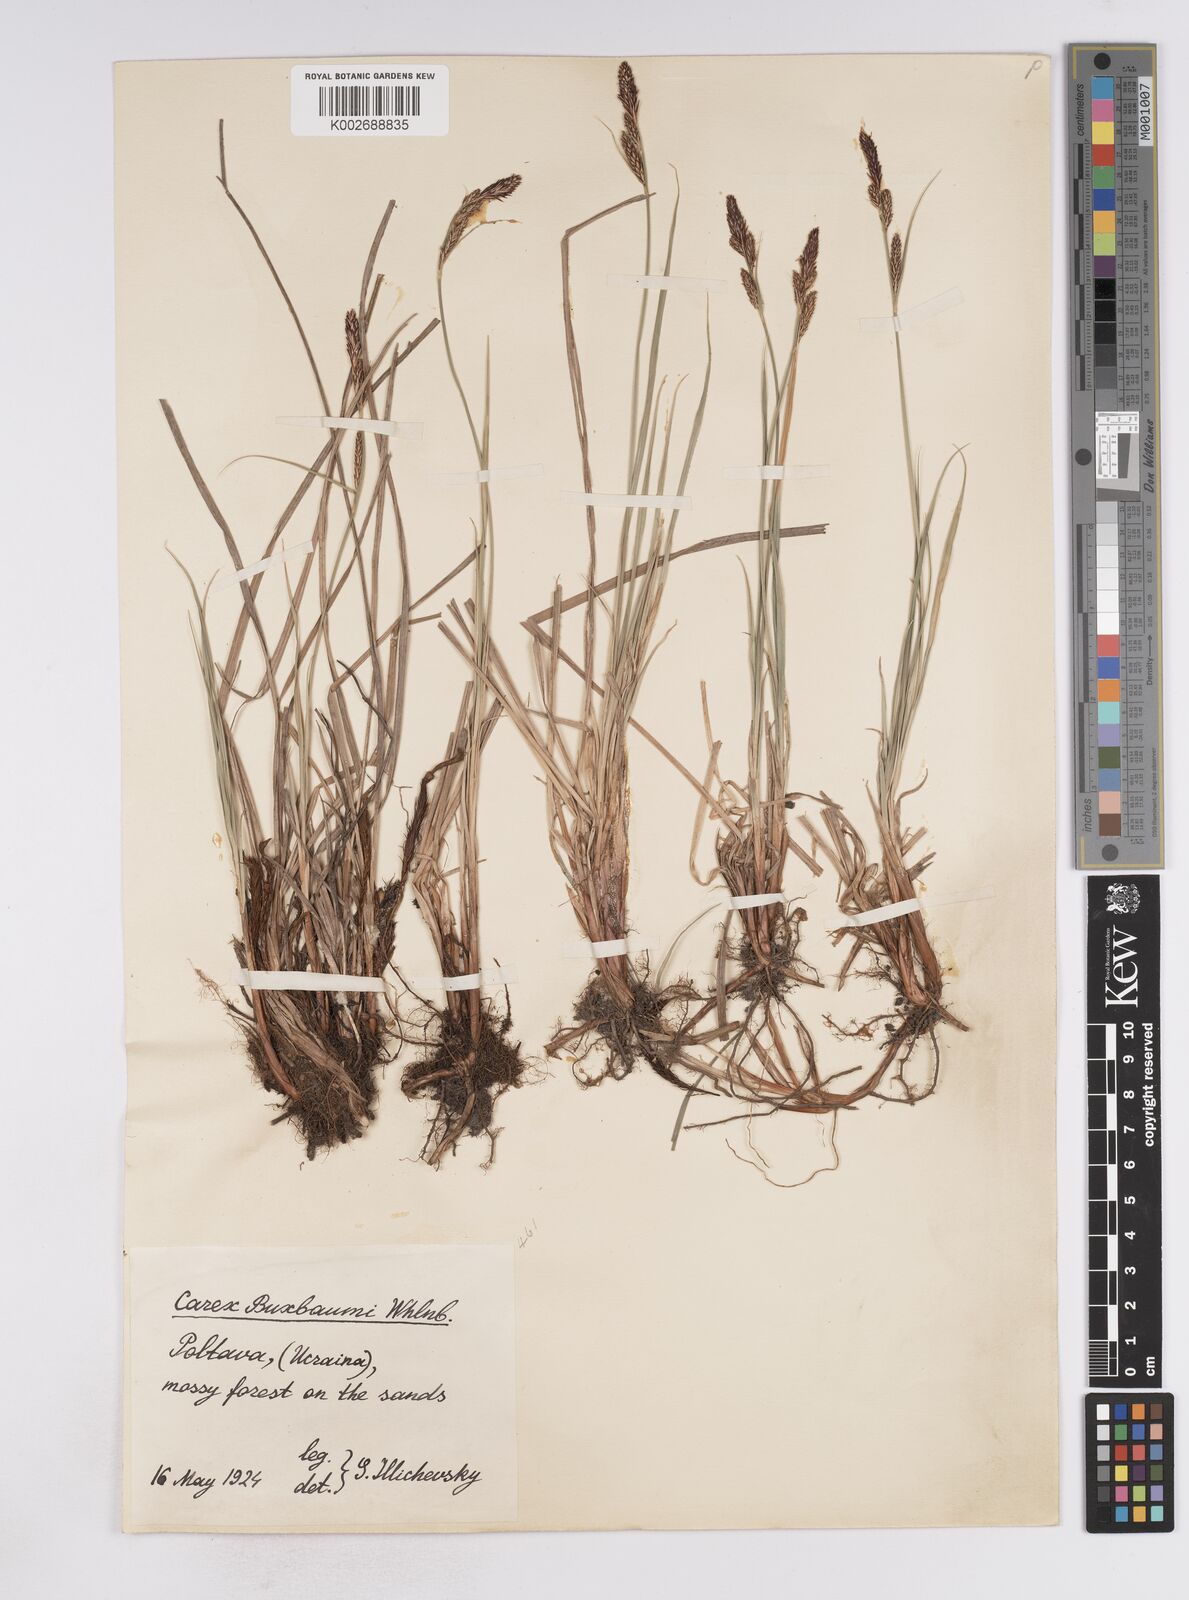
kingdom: Plantae
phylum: Tracheophyta
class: Liliopsida
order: Poales
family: Cyperaceae
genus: Carex
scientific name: Carex buxbaumii
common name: Club sedge
